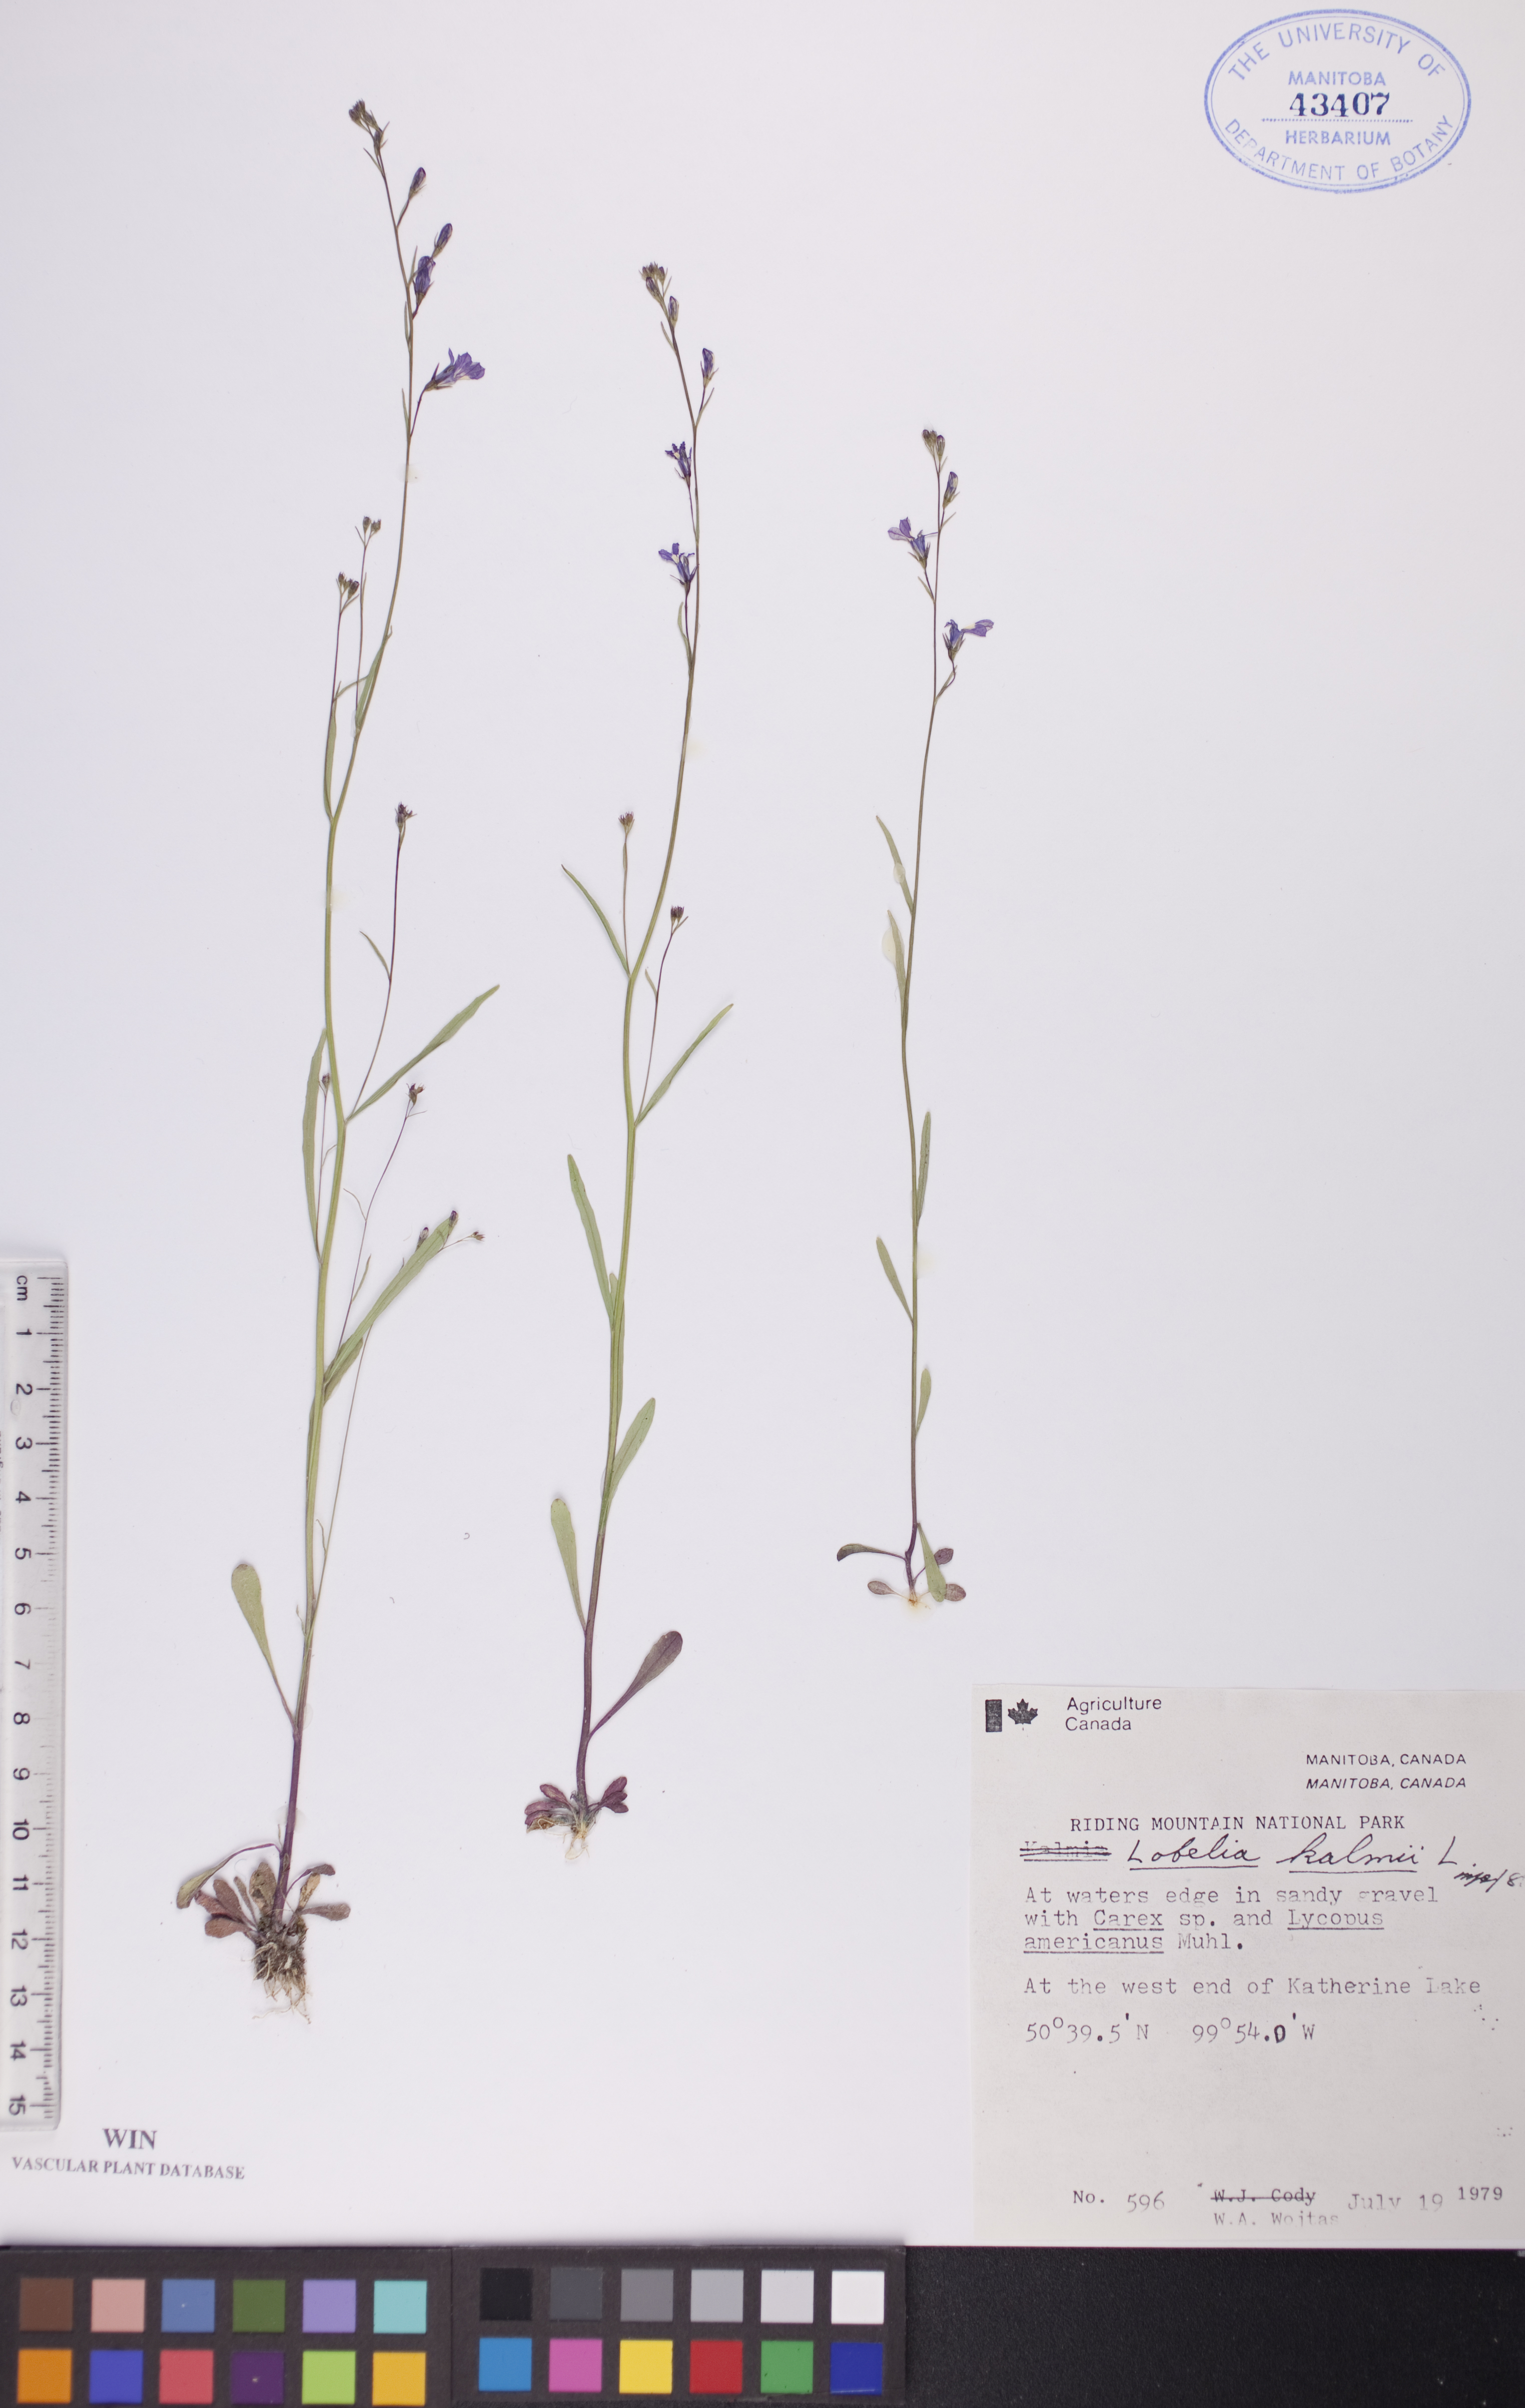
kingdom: Plantae
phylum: Tracheophyta
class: Magnoliopsida
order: Asterales
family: Campanulaceae
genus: Lobelia
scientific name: Lobelia kalmii
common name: Kalm's lobelia
